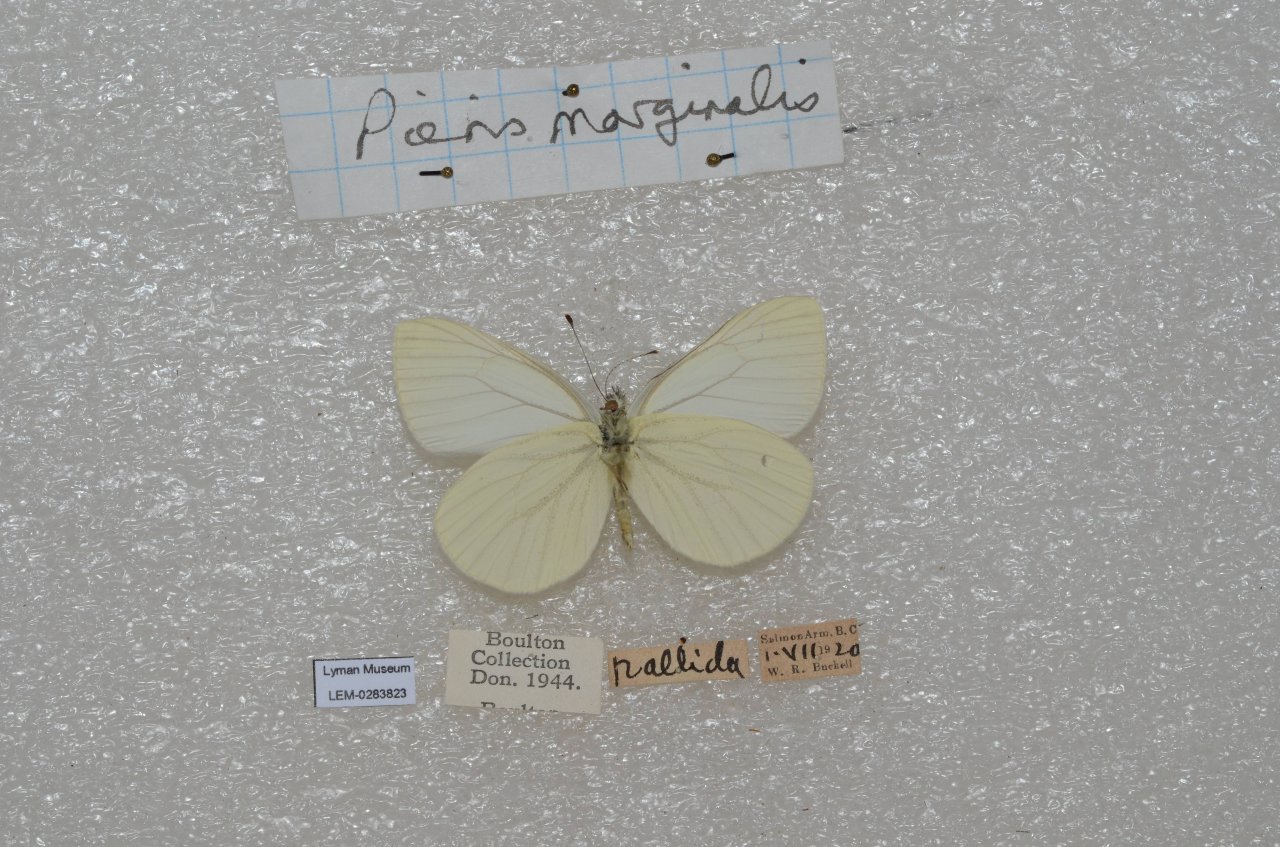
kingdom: Animalia
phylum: Arthropoda
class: Insecta
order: Lepidoptera
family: Pieridae
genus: Pieris
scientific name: Pieris marginalis
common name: Margined White
